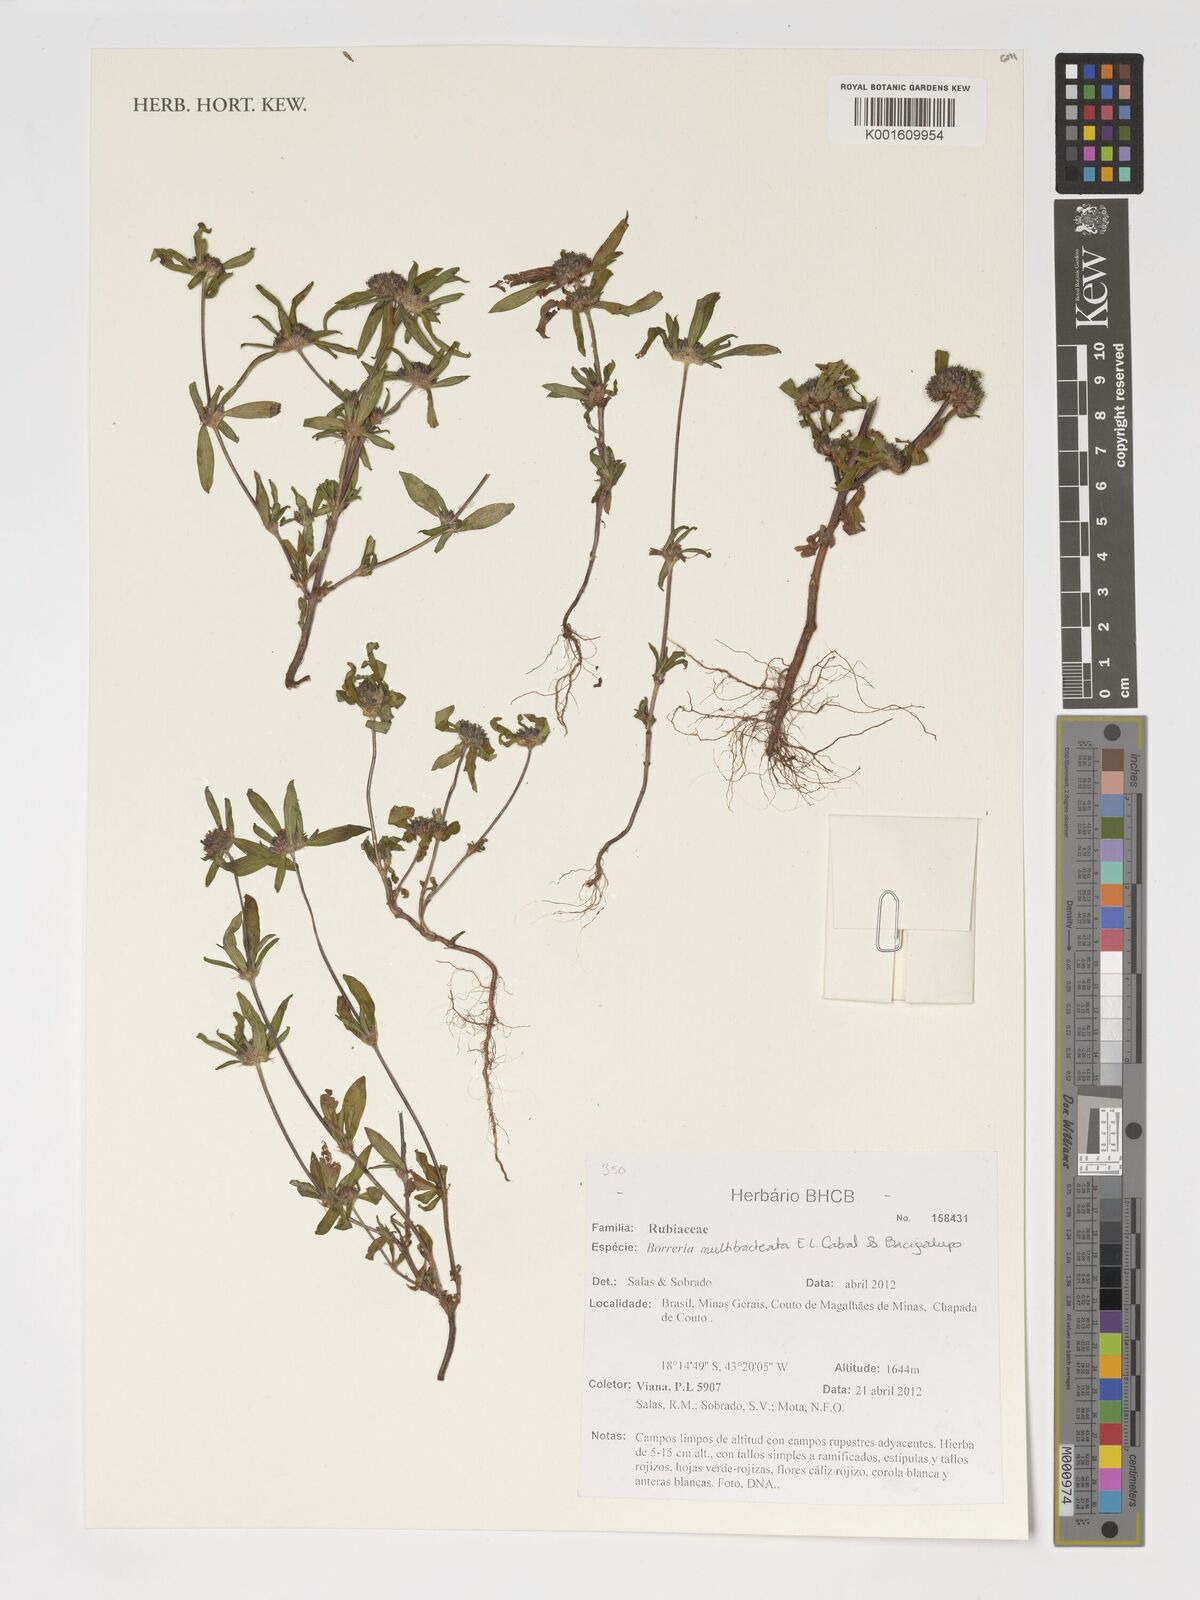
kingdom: Plantae
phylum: Tracheophyta
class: Magnoliopsida
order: Gentianales
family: Rubiaceae
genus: Spermacoce
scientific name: Spermacoce multibracteata
